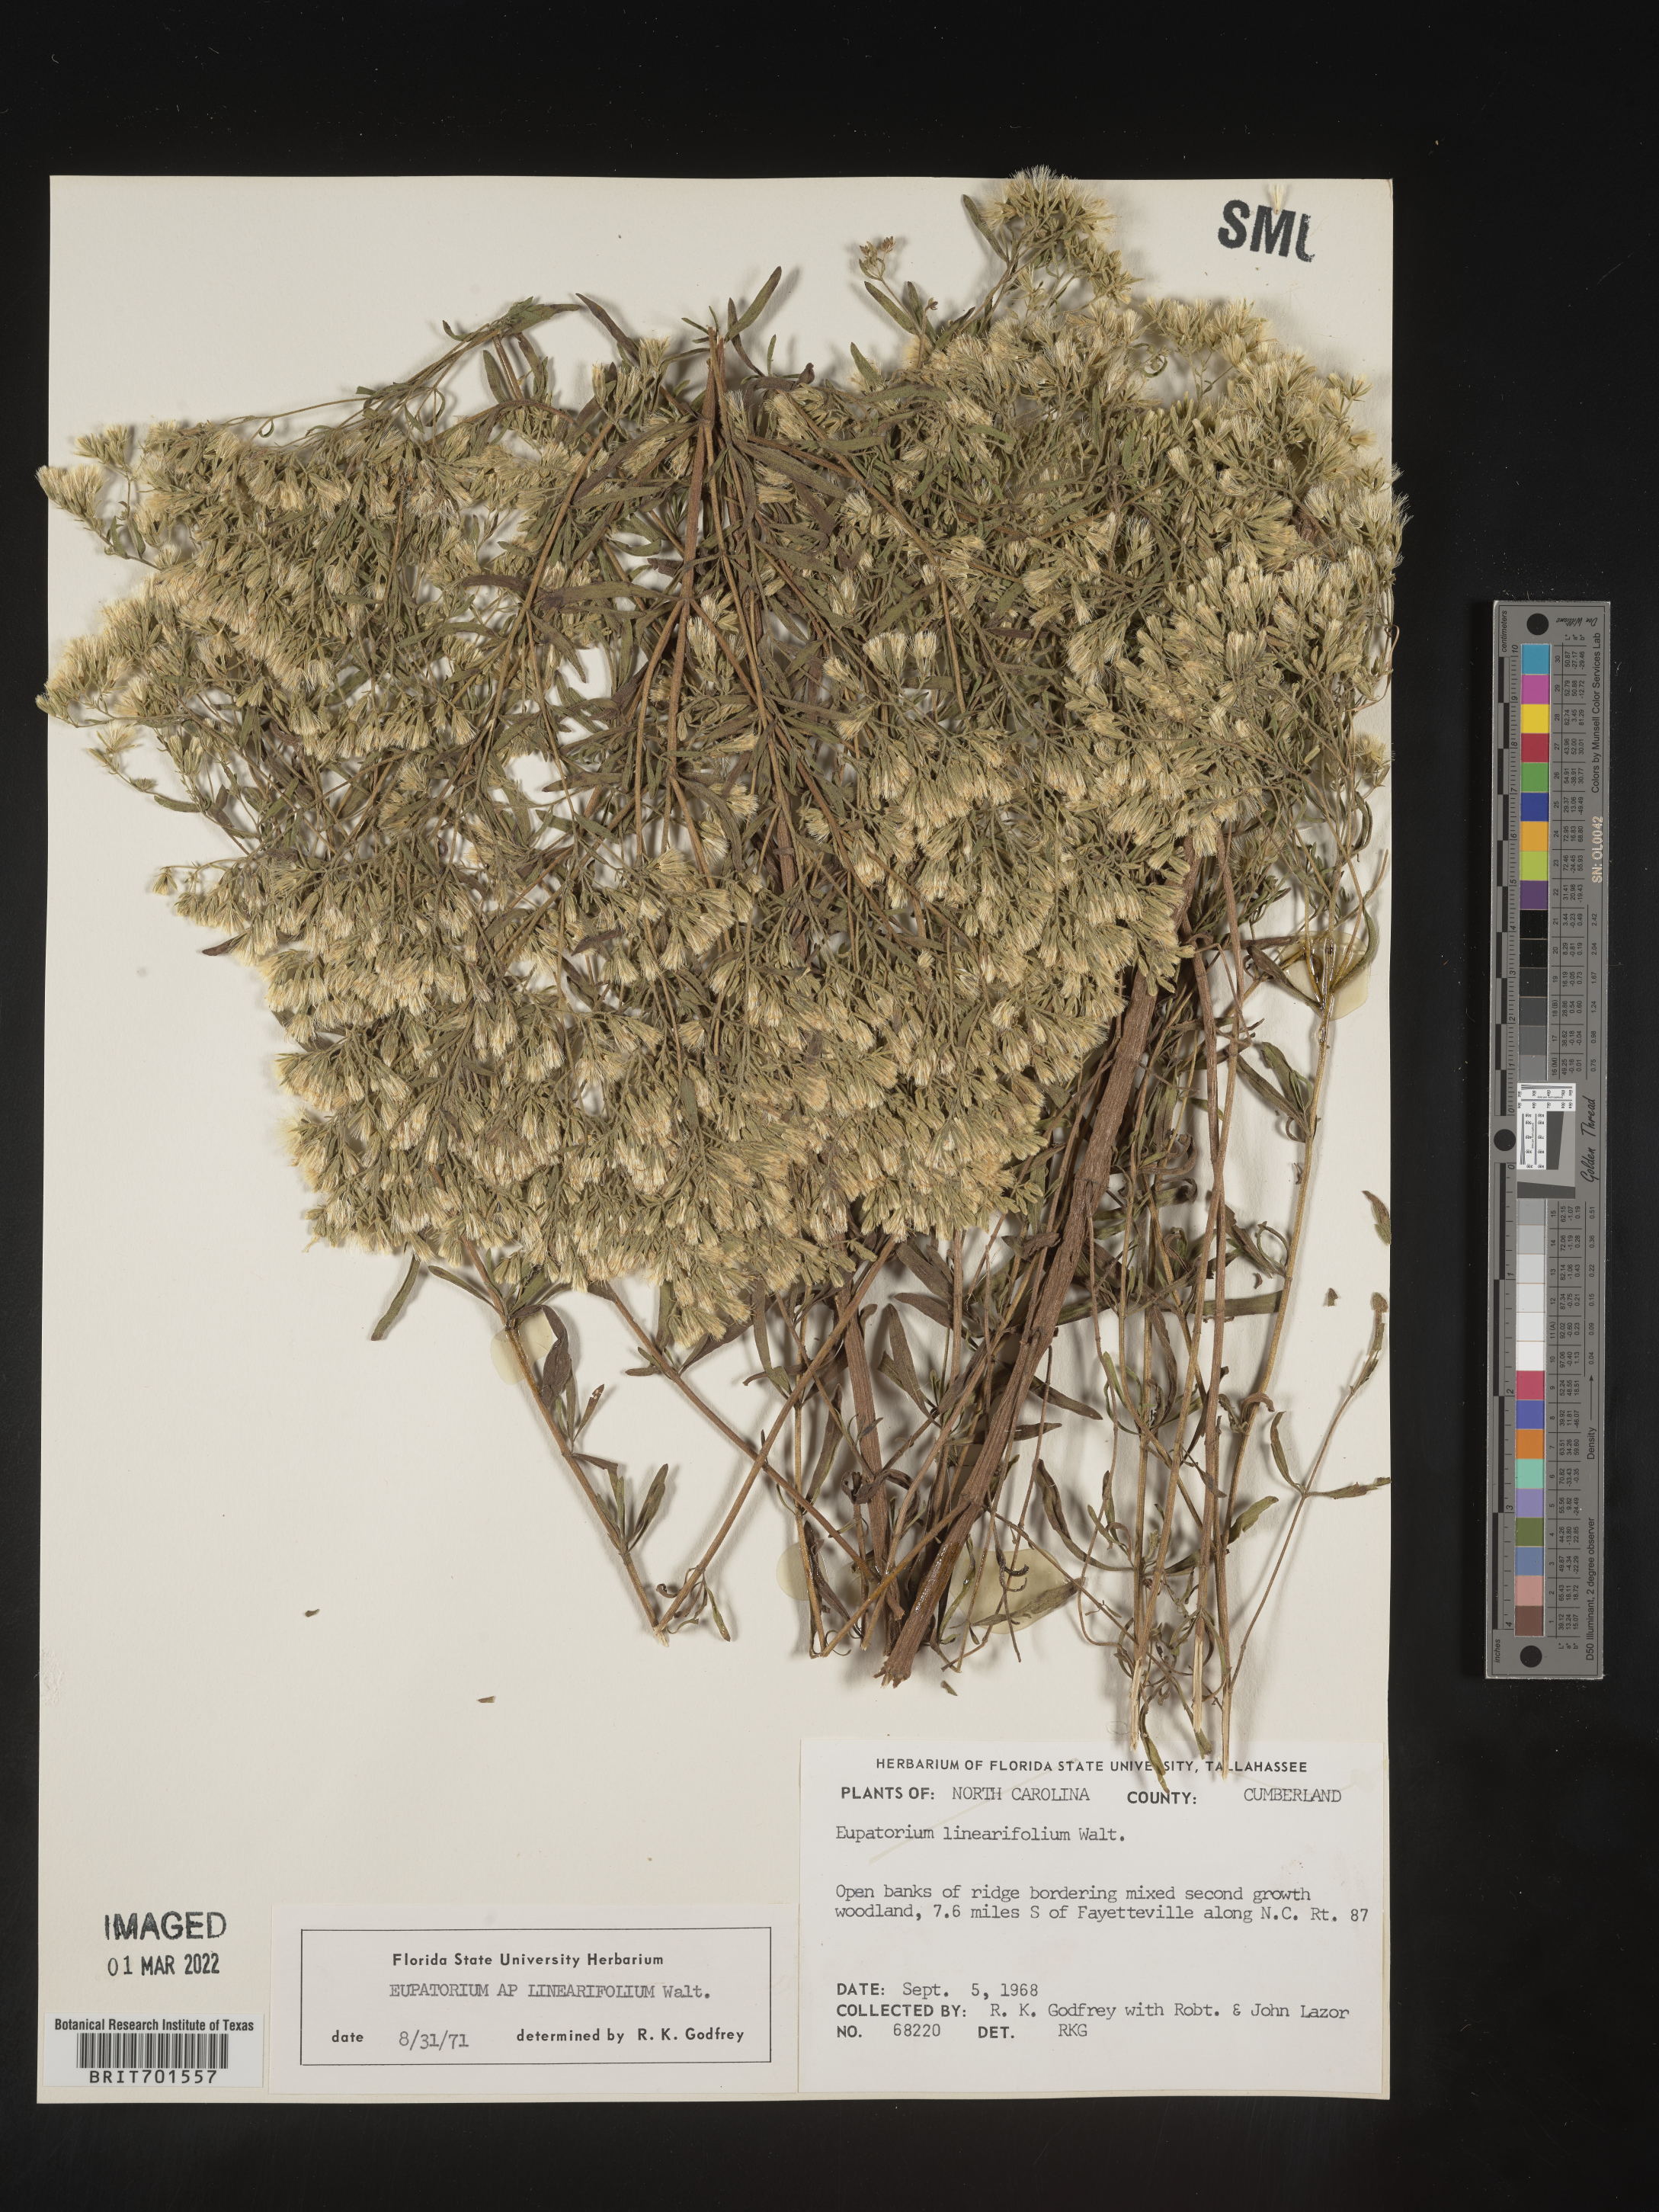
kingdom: Plantae
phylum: Tracheophyta
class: Magnoliopsida
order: Asterales
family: Asteraceae
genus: Eupatorium
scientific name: Eupatorium linearifolium
